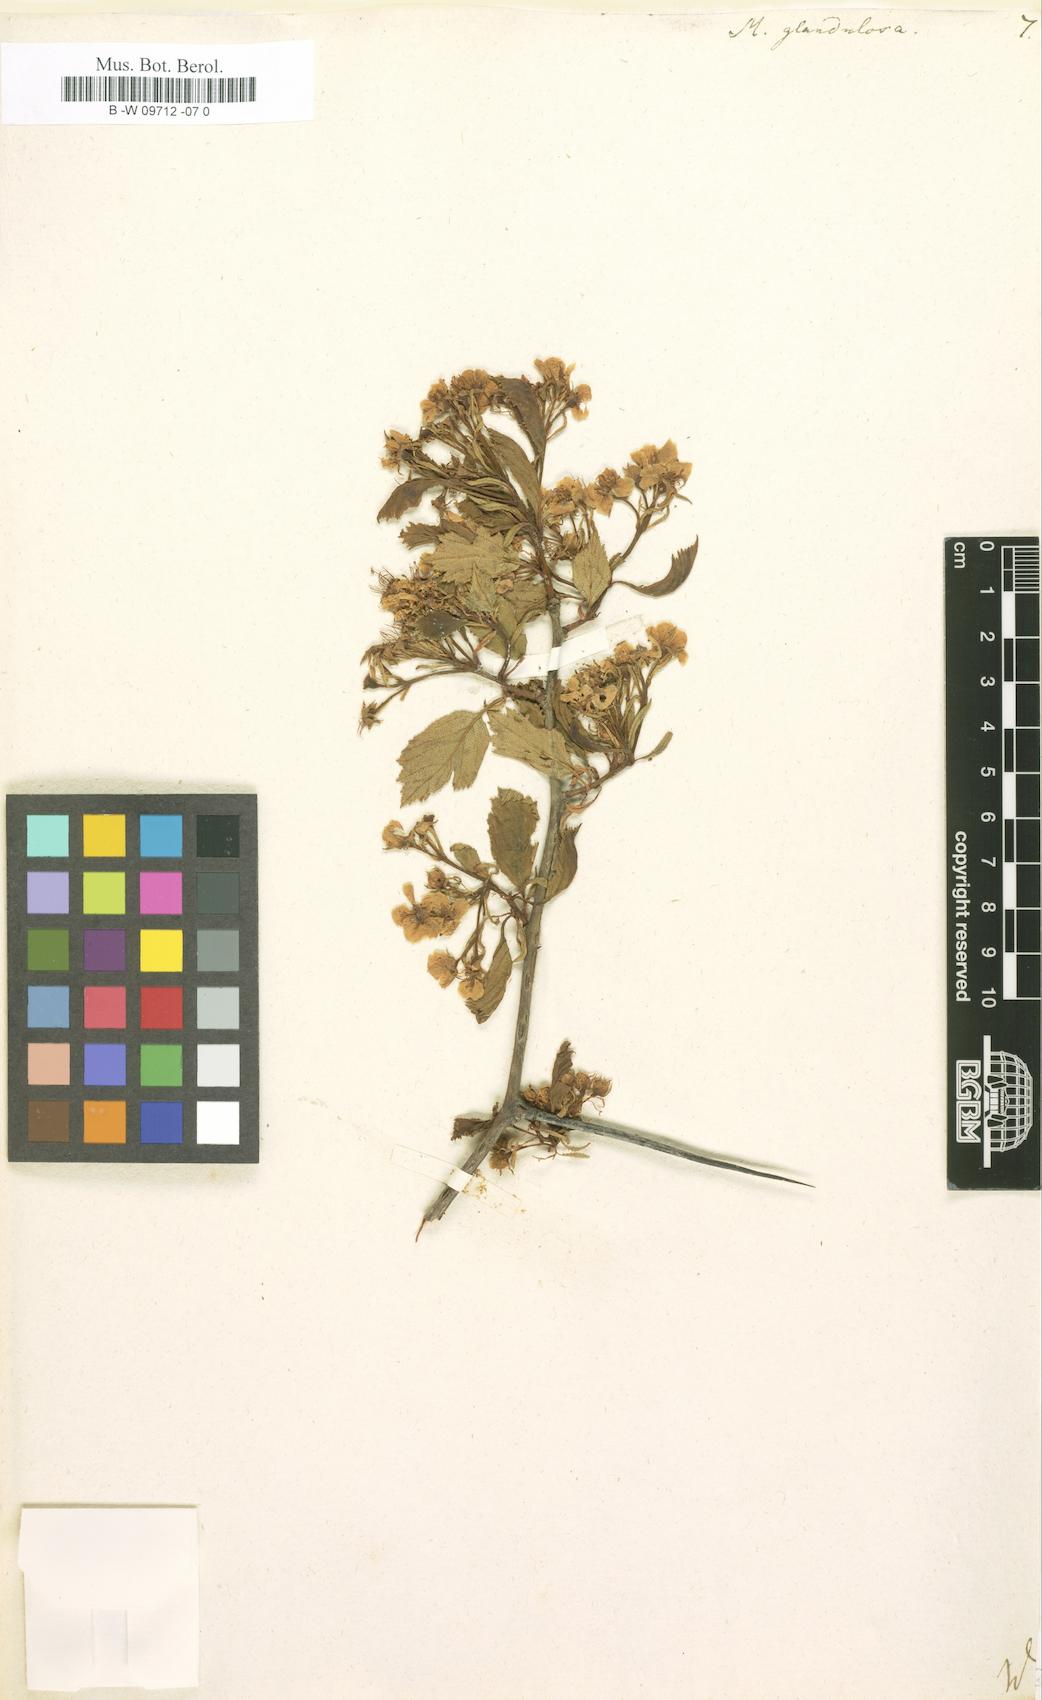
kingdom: Plantae
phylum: Tracheophyta
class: Magnoliopsida
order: Rosales
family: Rosaceae
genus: Crataegus
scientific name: Crataegus
